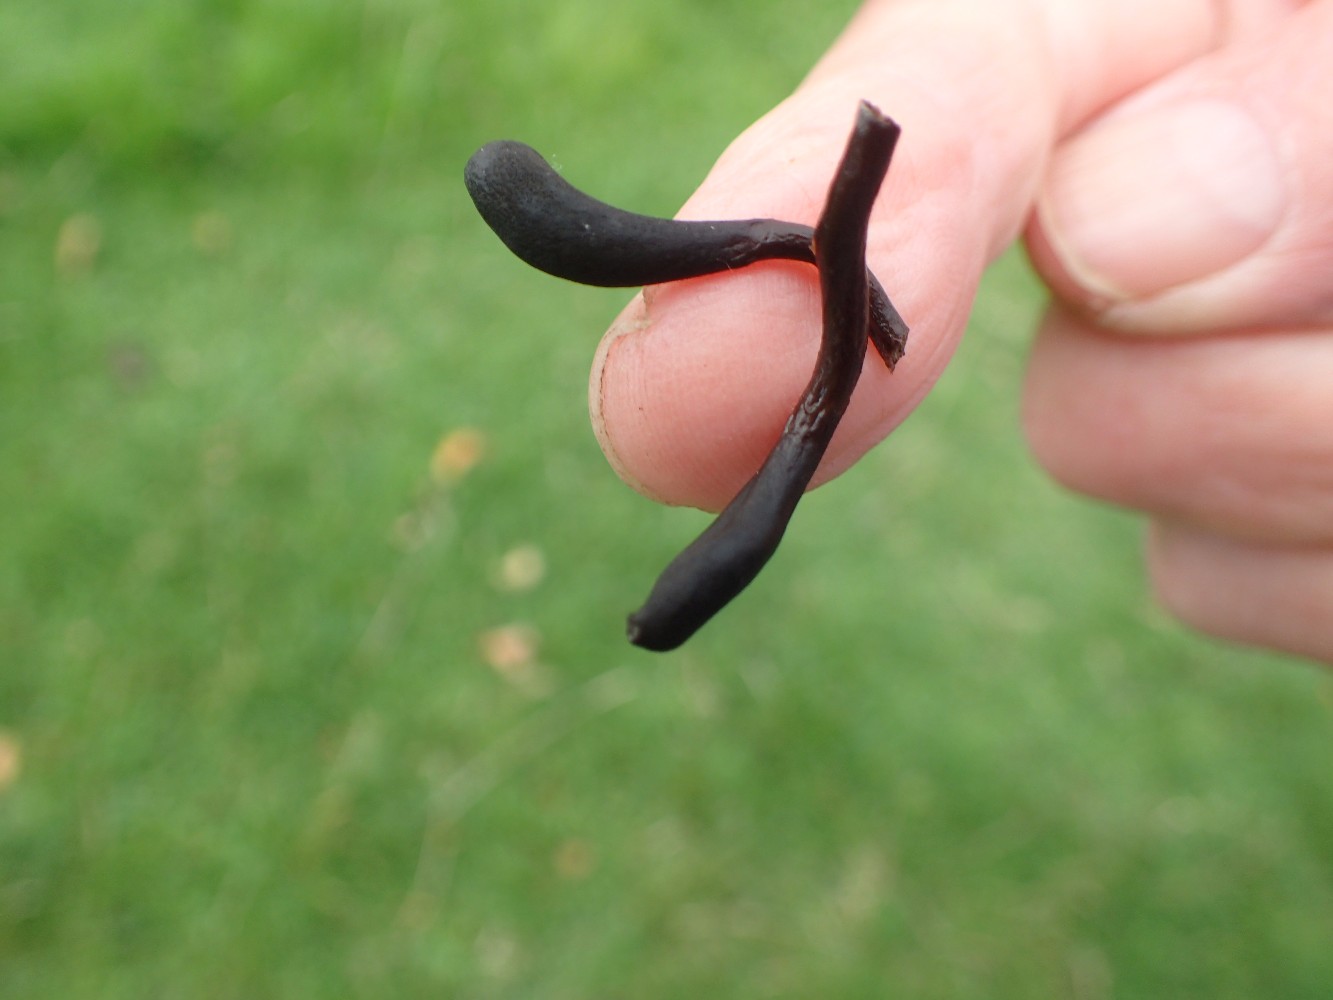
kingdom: Fungi
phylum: Ascomycota
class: Geoglossomycetes
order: Geoglossales
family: Geoglossaceae
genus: Glutinoglossum
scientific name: Glutinoglossum glutinosum
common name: slimet jordtunge
